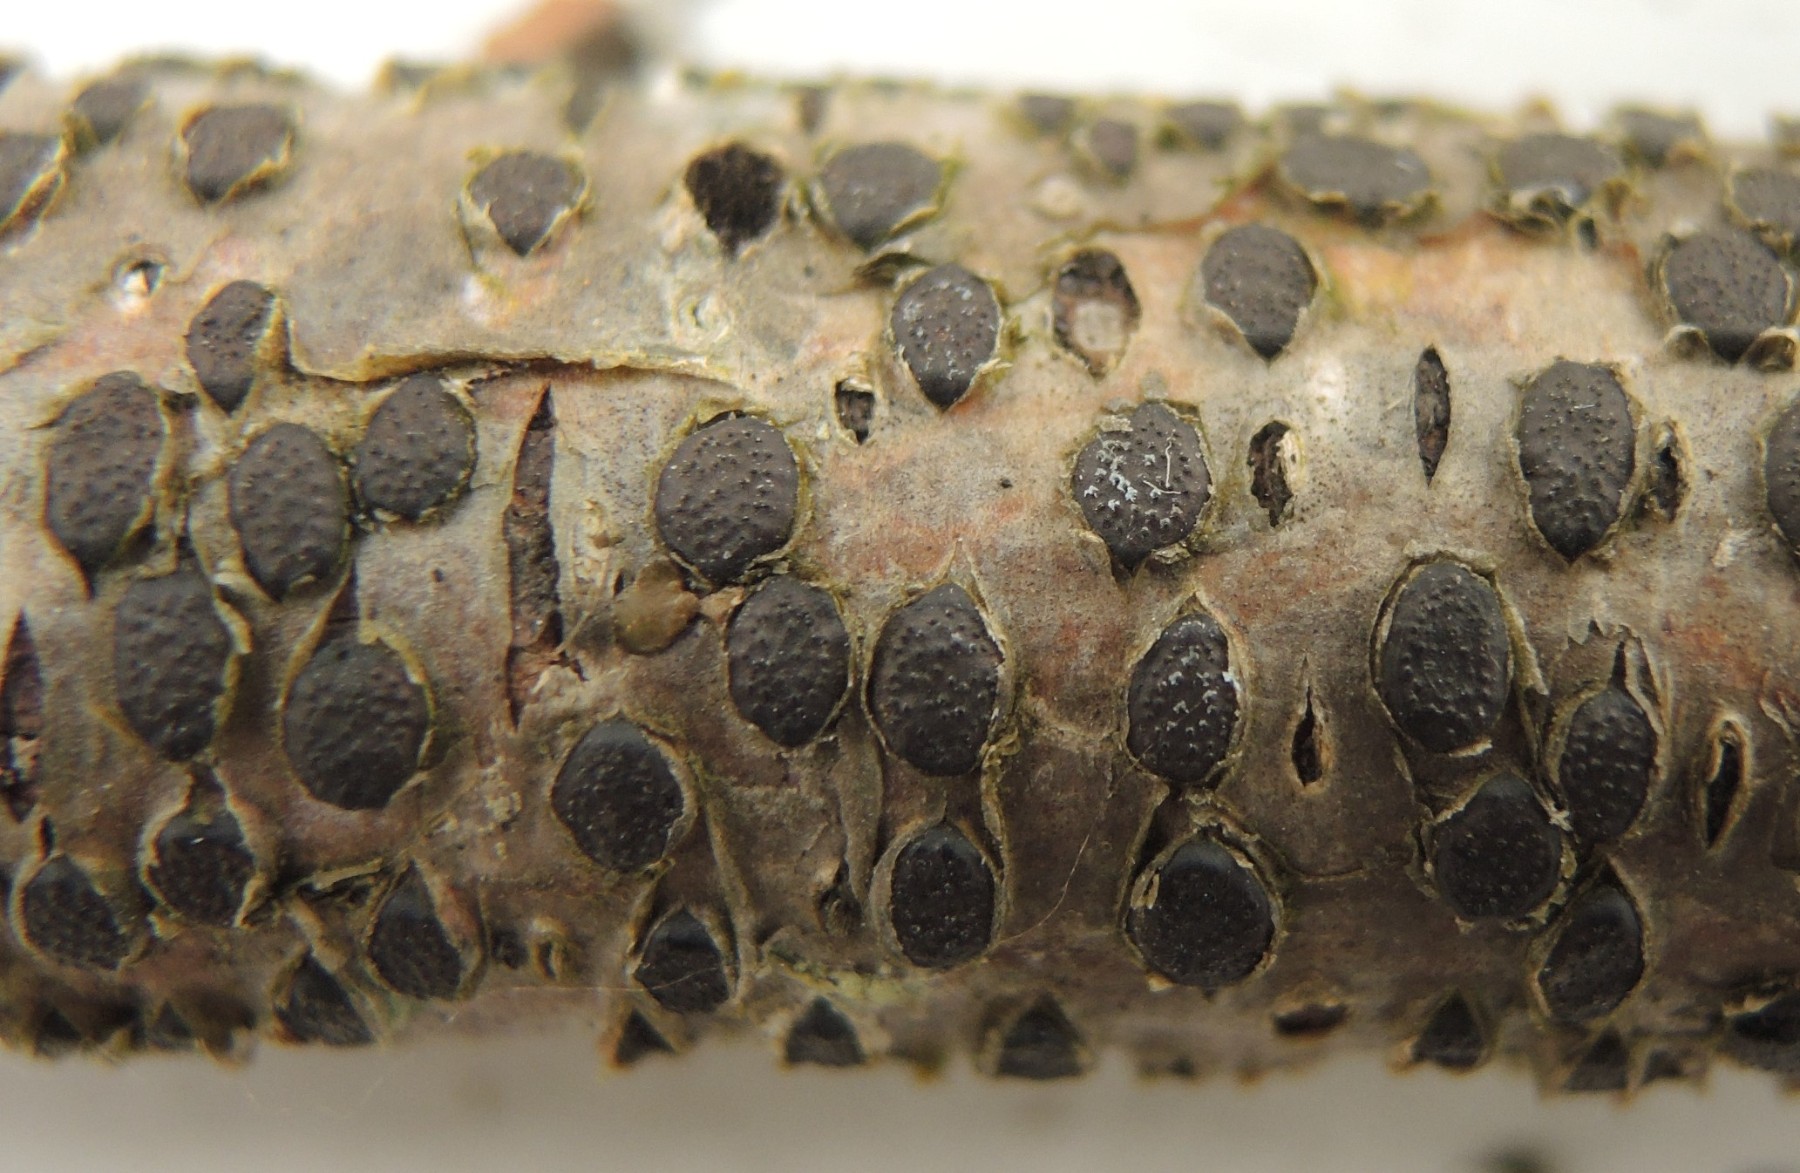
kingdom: Fungi
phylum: Ascomycota
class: Sordariomycetes
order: Xylariales
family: Diatrypaceae
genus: Diatrype
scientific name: Diatrype bullata
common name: pile-kulskorpe
